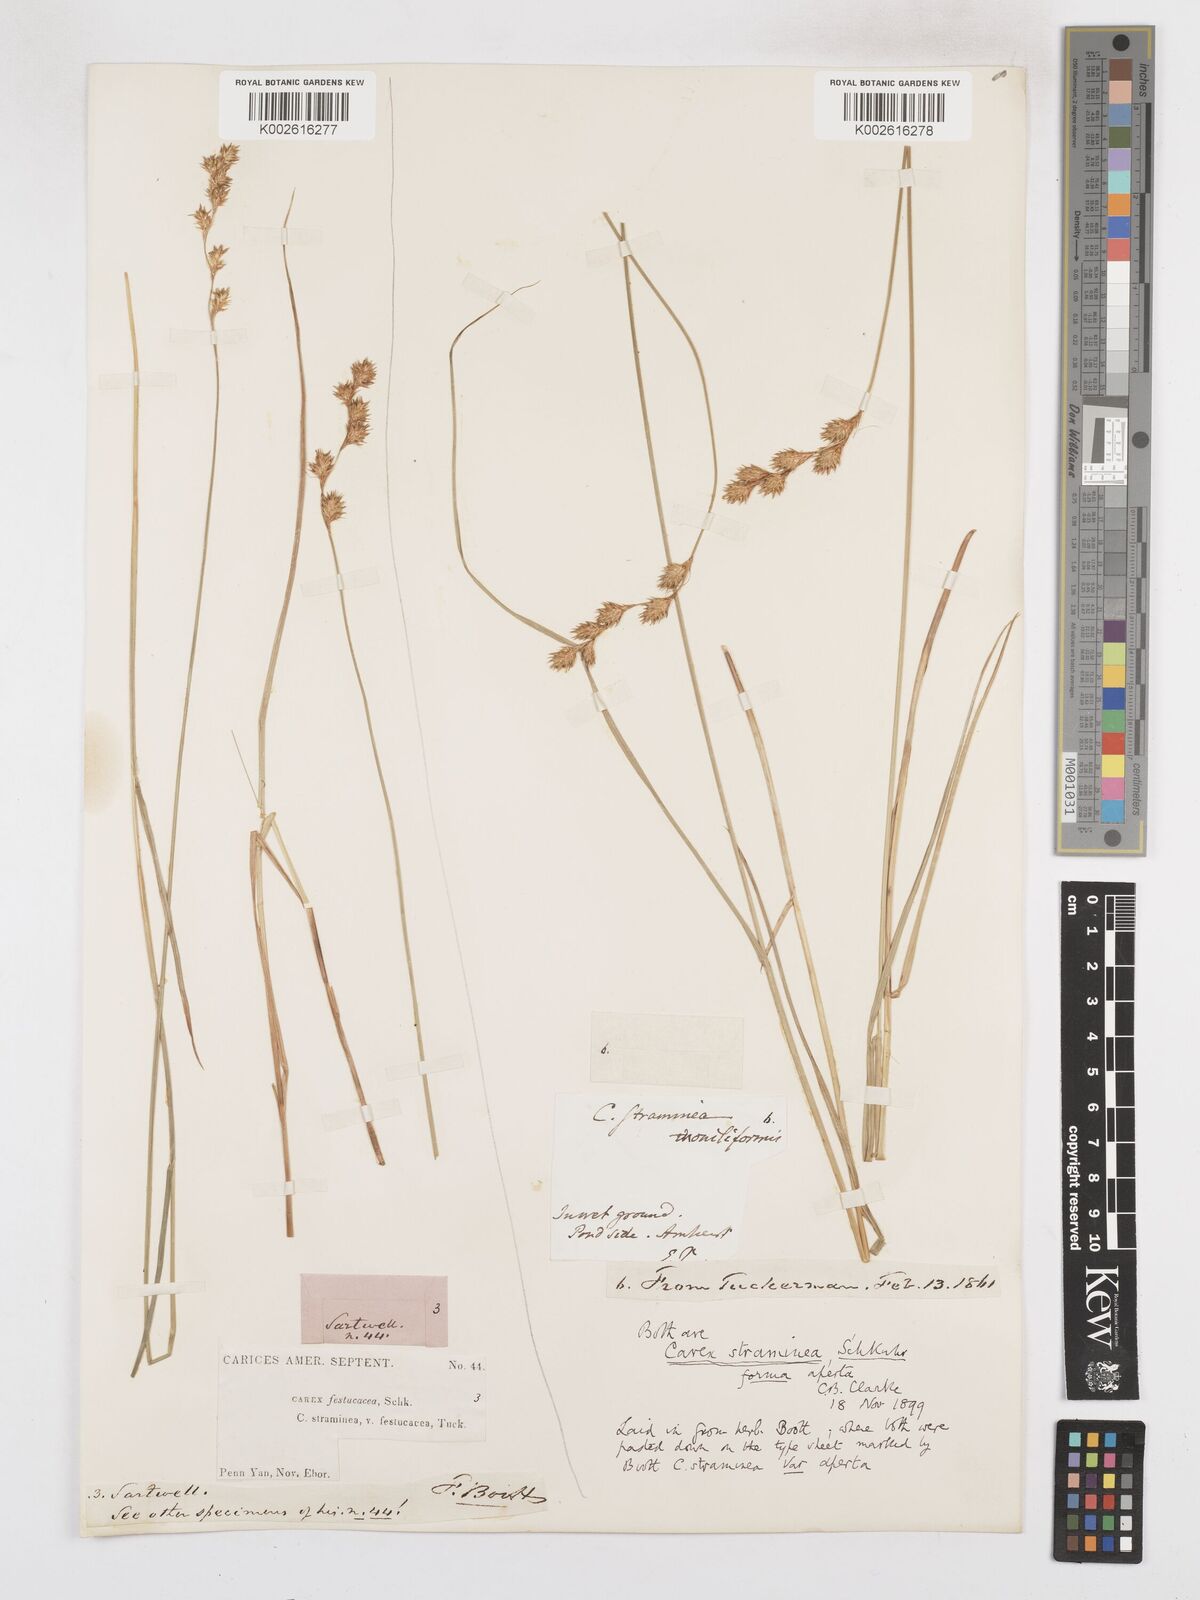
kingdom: Plantae
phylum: Tracheophyta
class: Liliopsida
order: Poales
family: Cyperaceae
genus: Carex
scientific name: Carex straminea
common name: Eastern straw sedge
